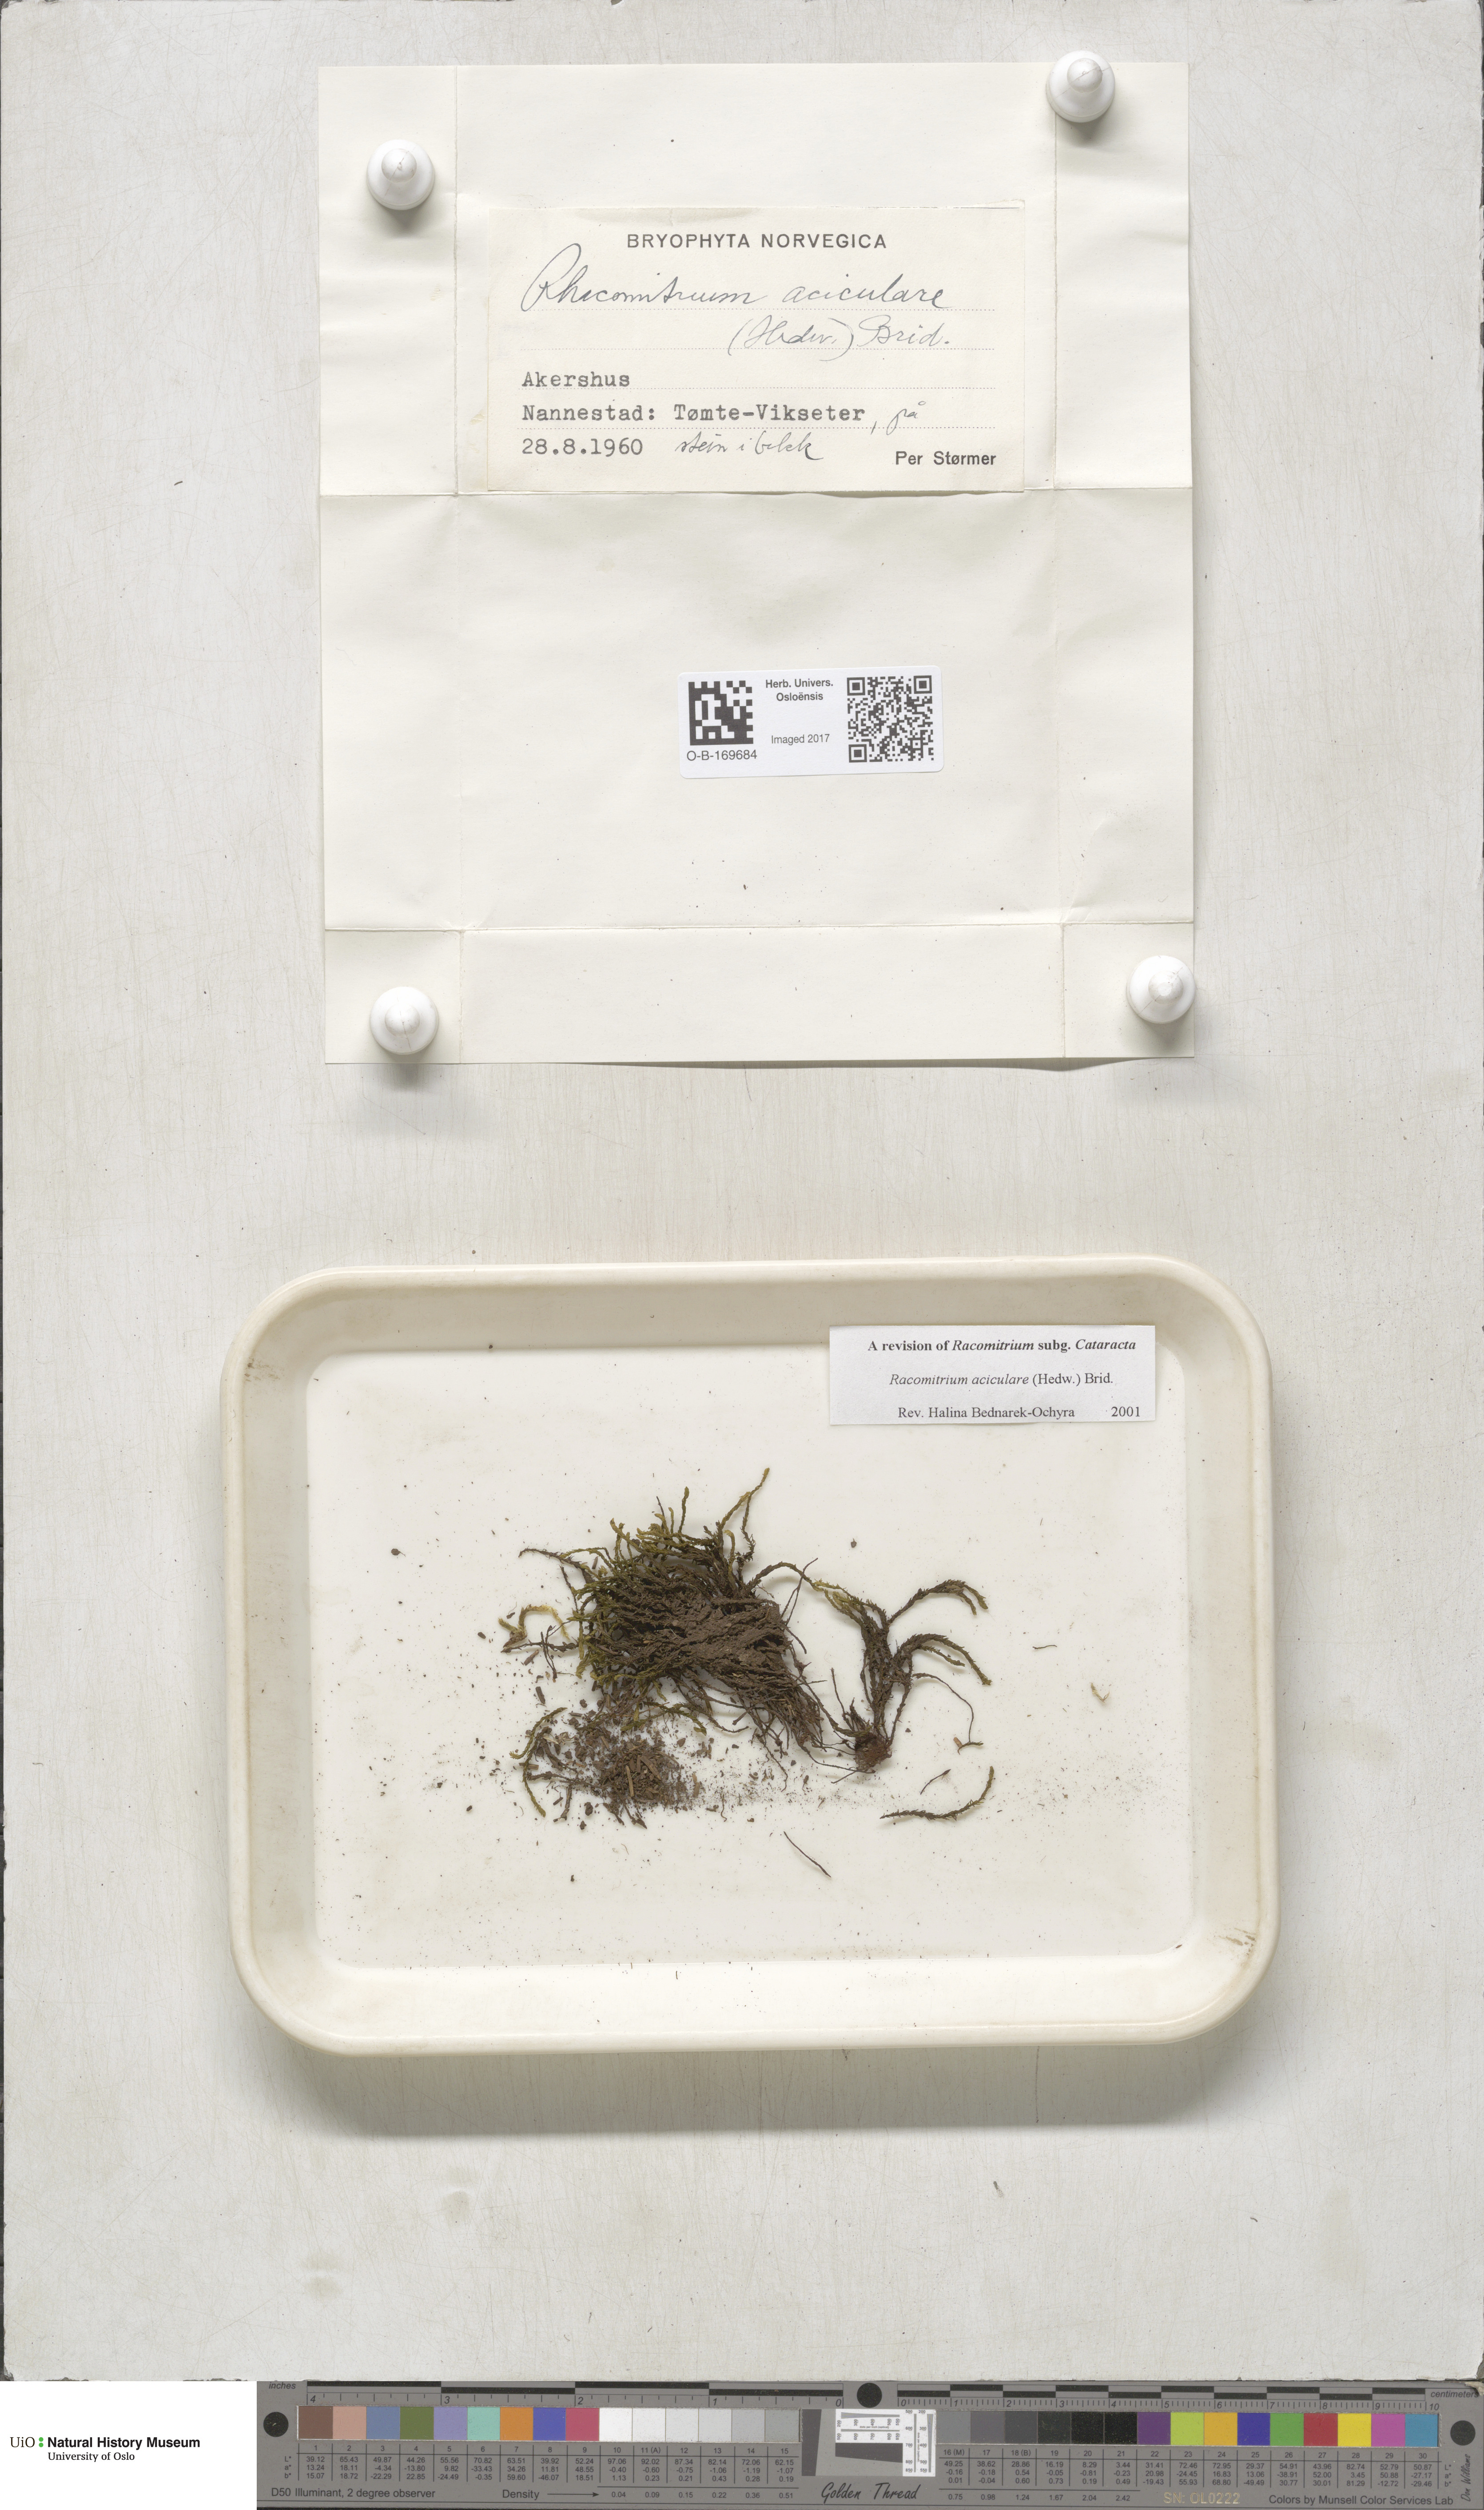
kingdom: Plantae
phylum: Bryophyta
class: Bryopsida
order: Grimmiales
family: Grimmiaceae
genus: Codriophorus
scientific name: Codriophorus acicularis
